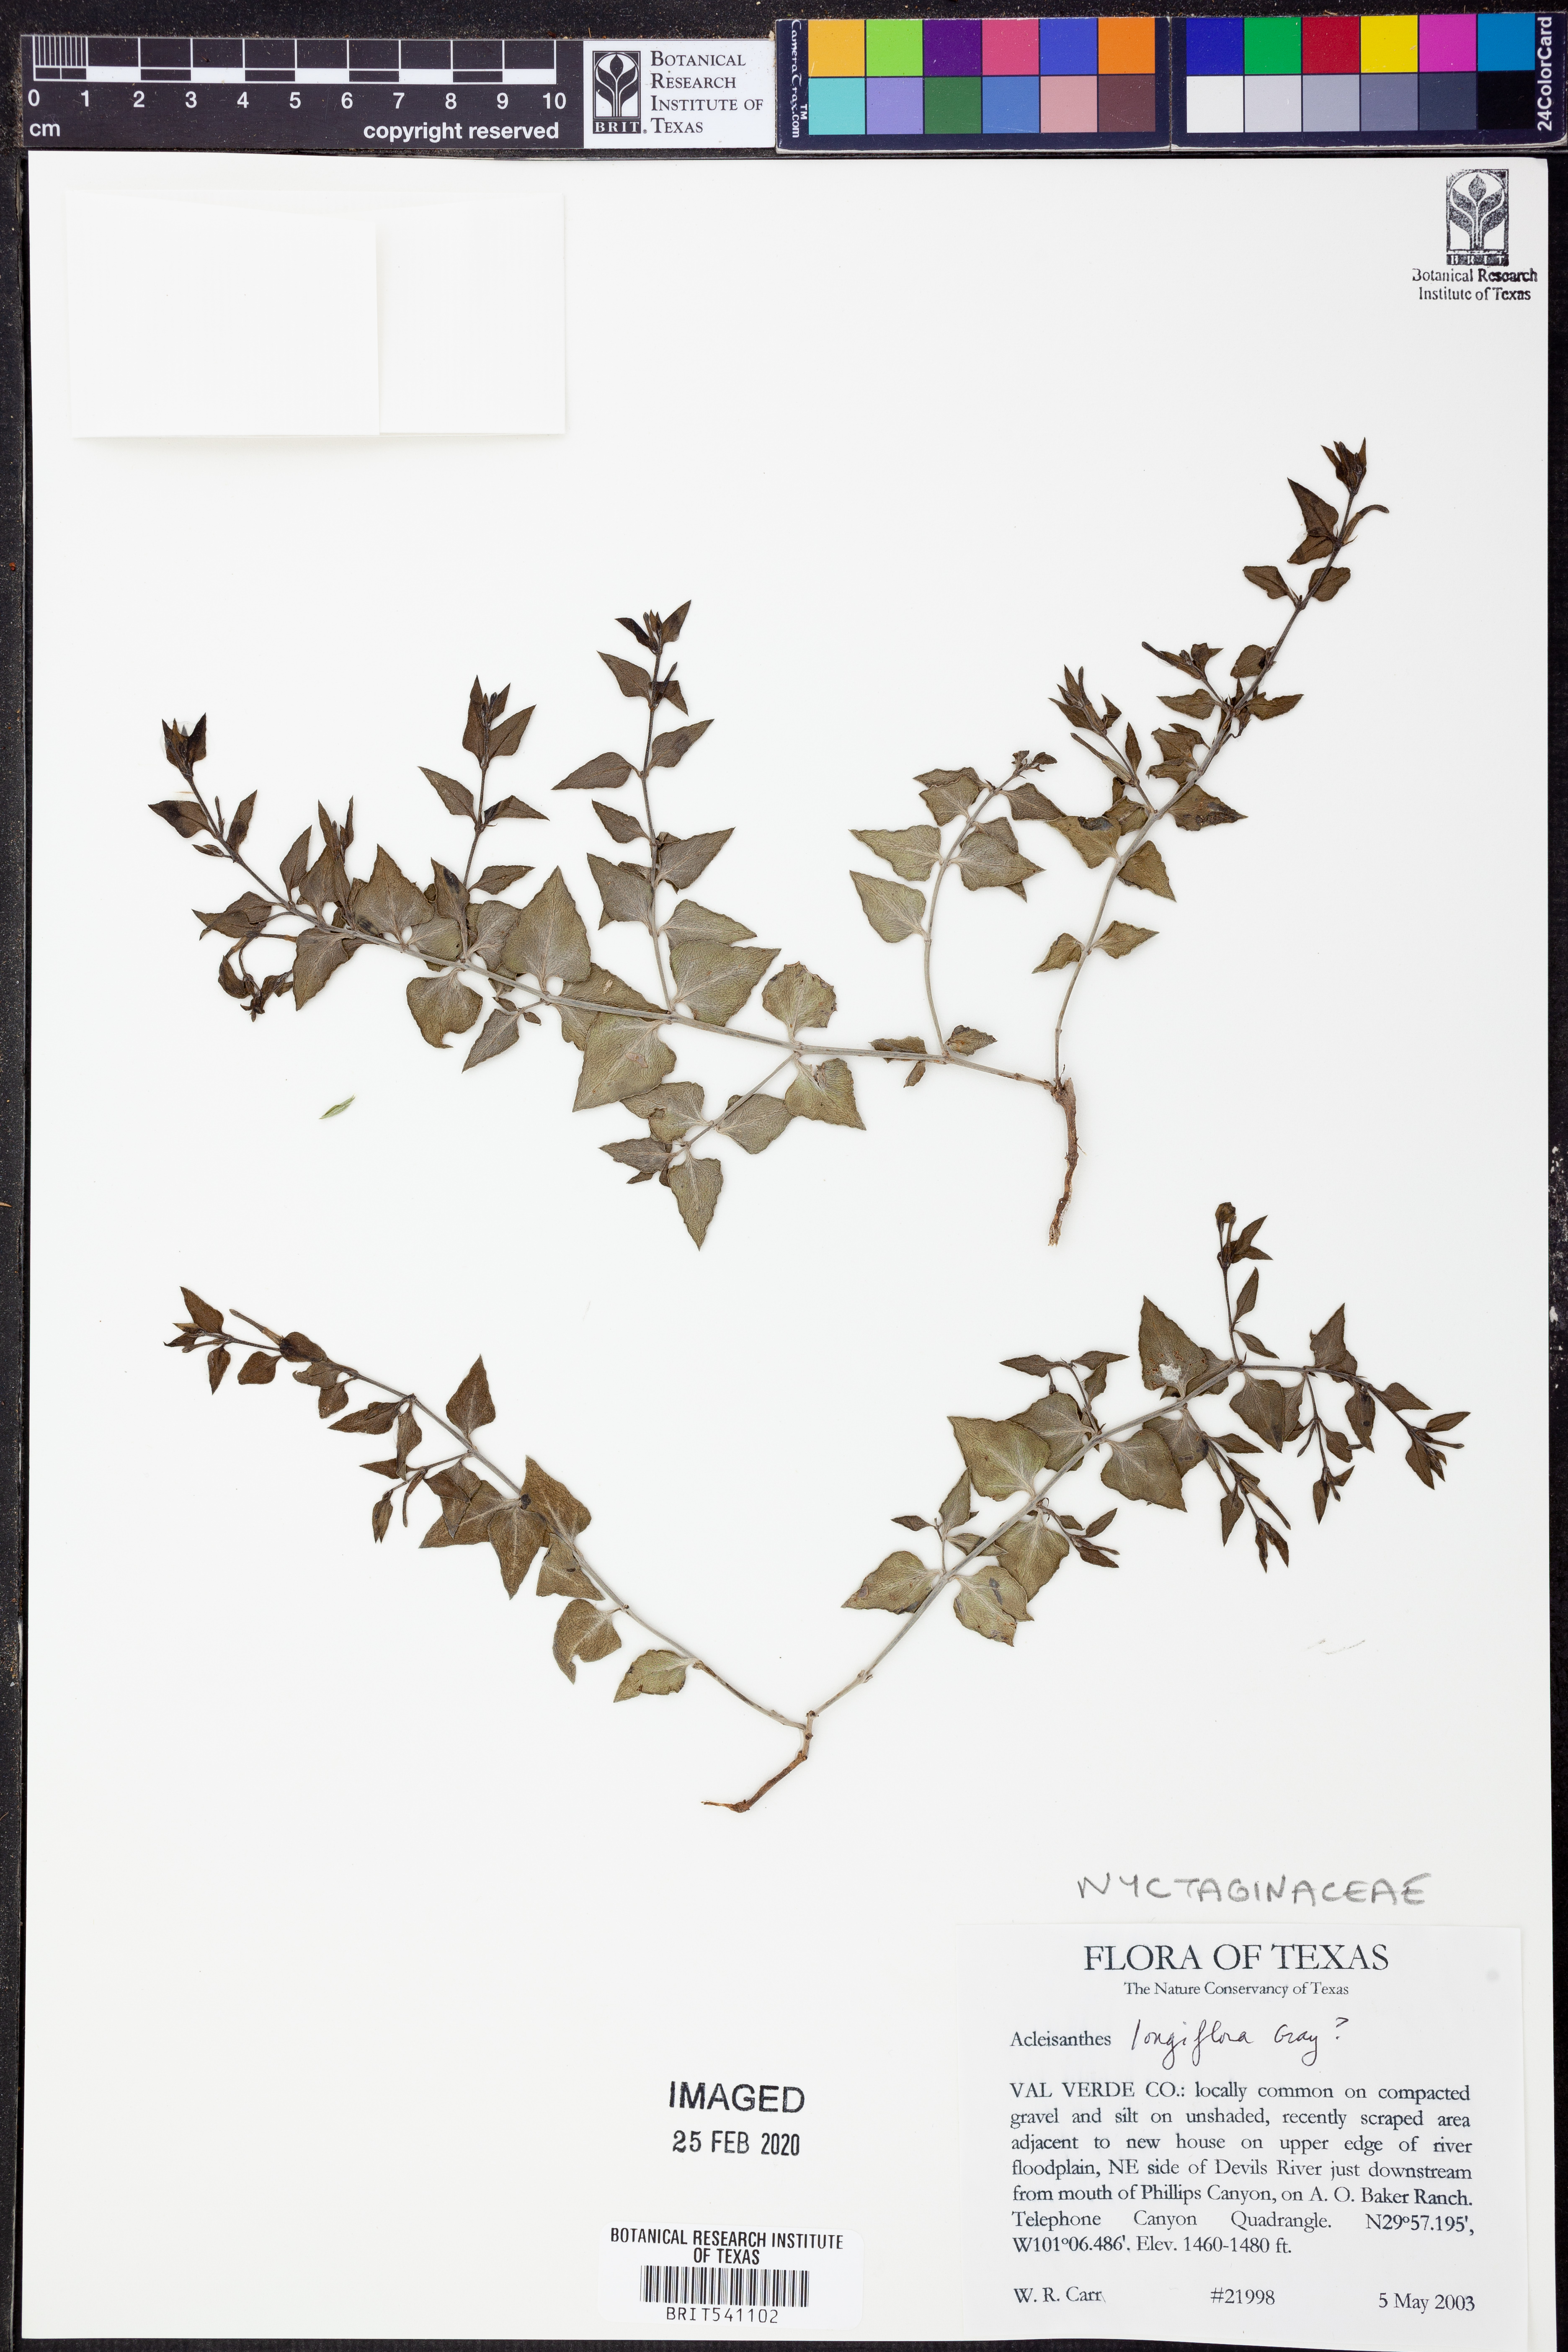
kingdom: Plantae
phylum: Tracheophyta
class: Magnoliopsida
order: Caryophyllales
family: Nyctaginaceae
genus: Acleisanthes
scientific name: Acleisanthes longiflora
